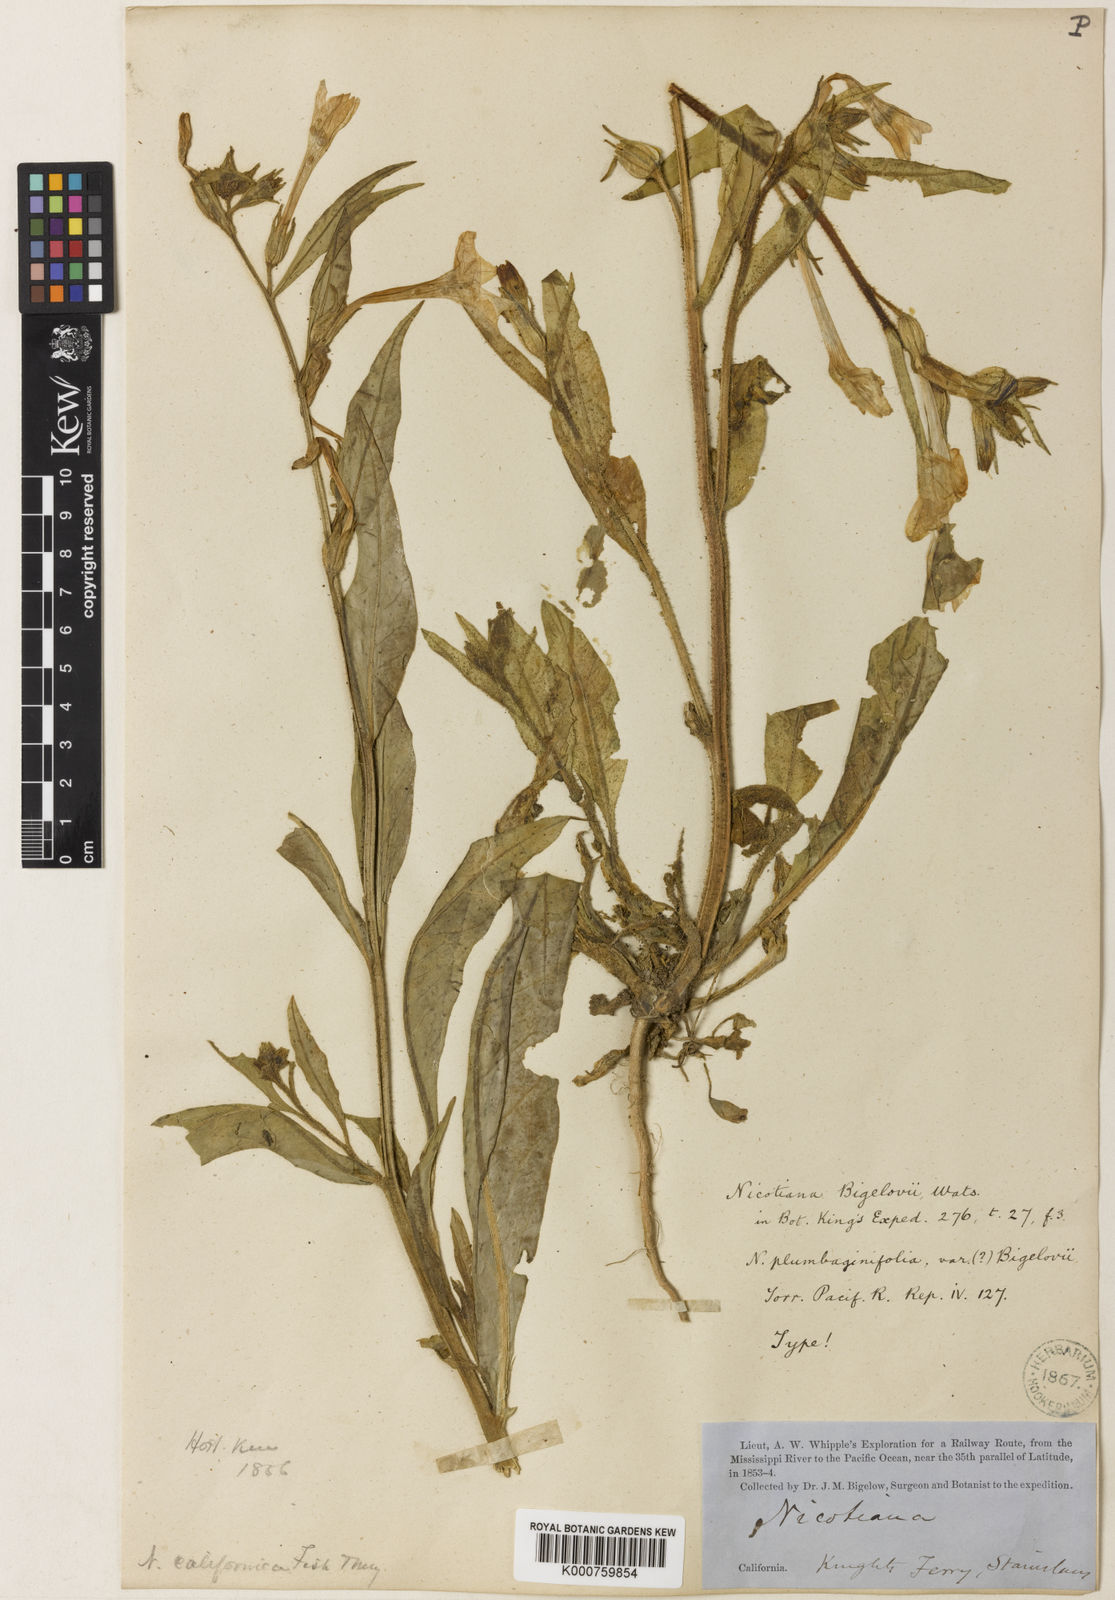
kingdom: Plantae
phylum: Tracheophyta
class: Magnoliopsida
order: Solanales
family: Solanaceae
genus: Nicotiana
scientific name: Nicotiana quadrivalvis
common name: Indian tobacco
